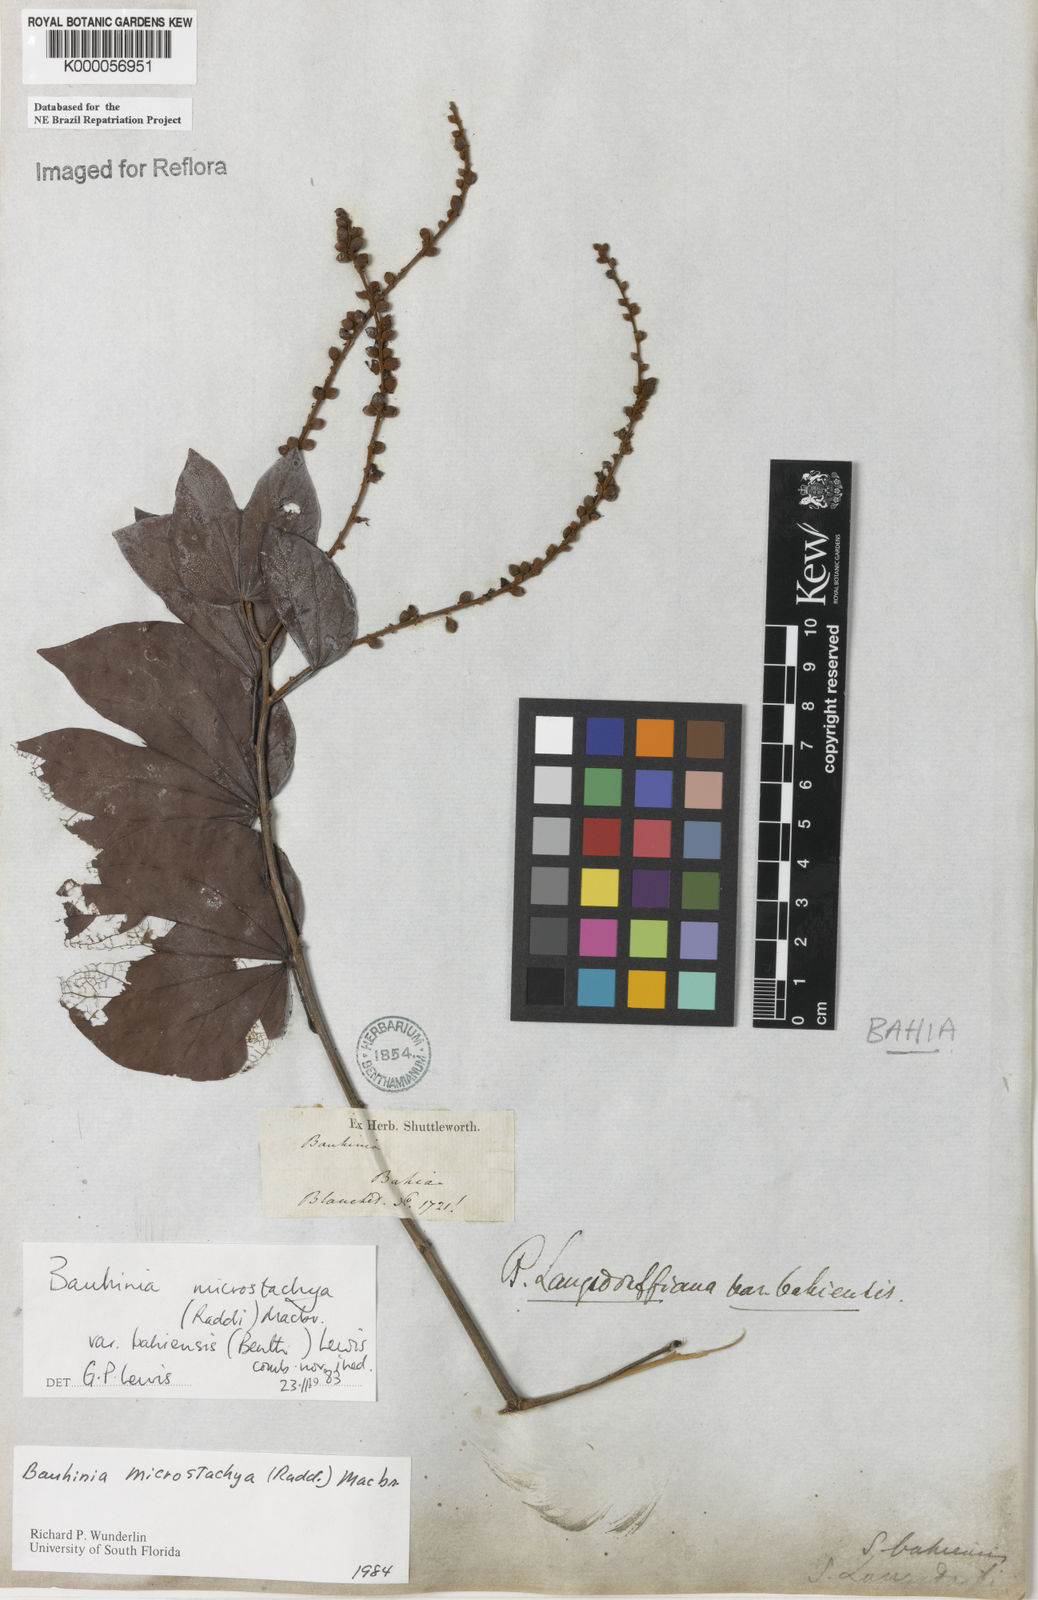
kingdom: Plantae
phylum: Tracheophyta
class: Magnoliopsida
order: Fabales
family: Fabaceae
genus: Schnella
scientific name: Schnella microstachya
